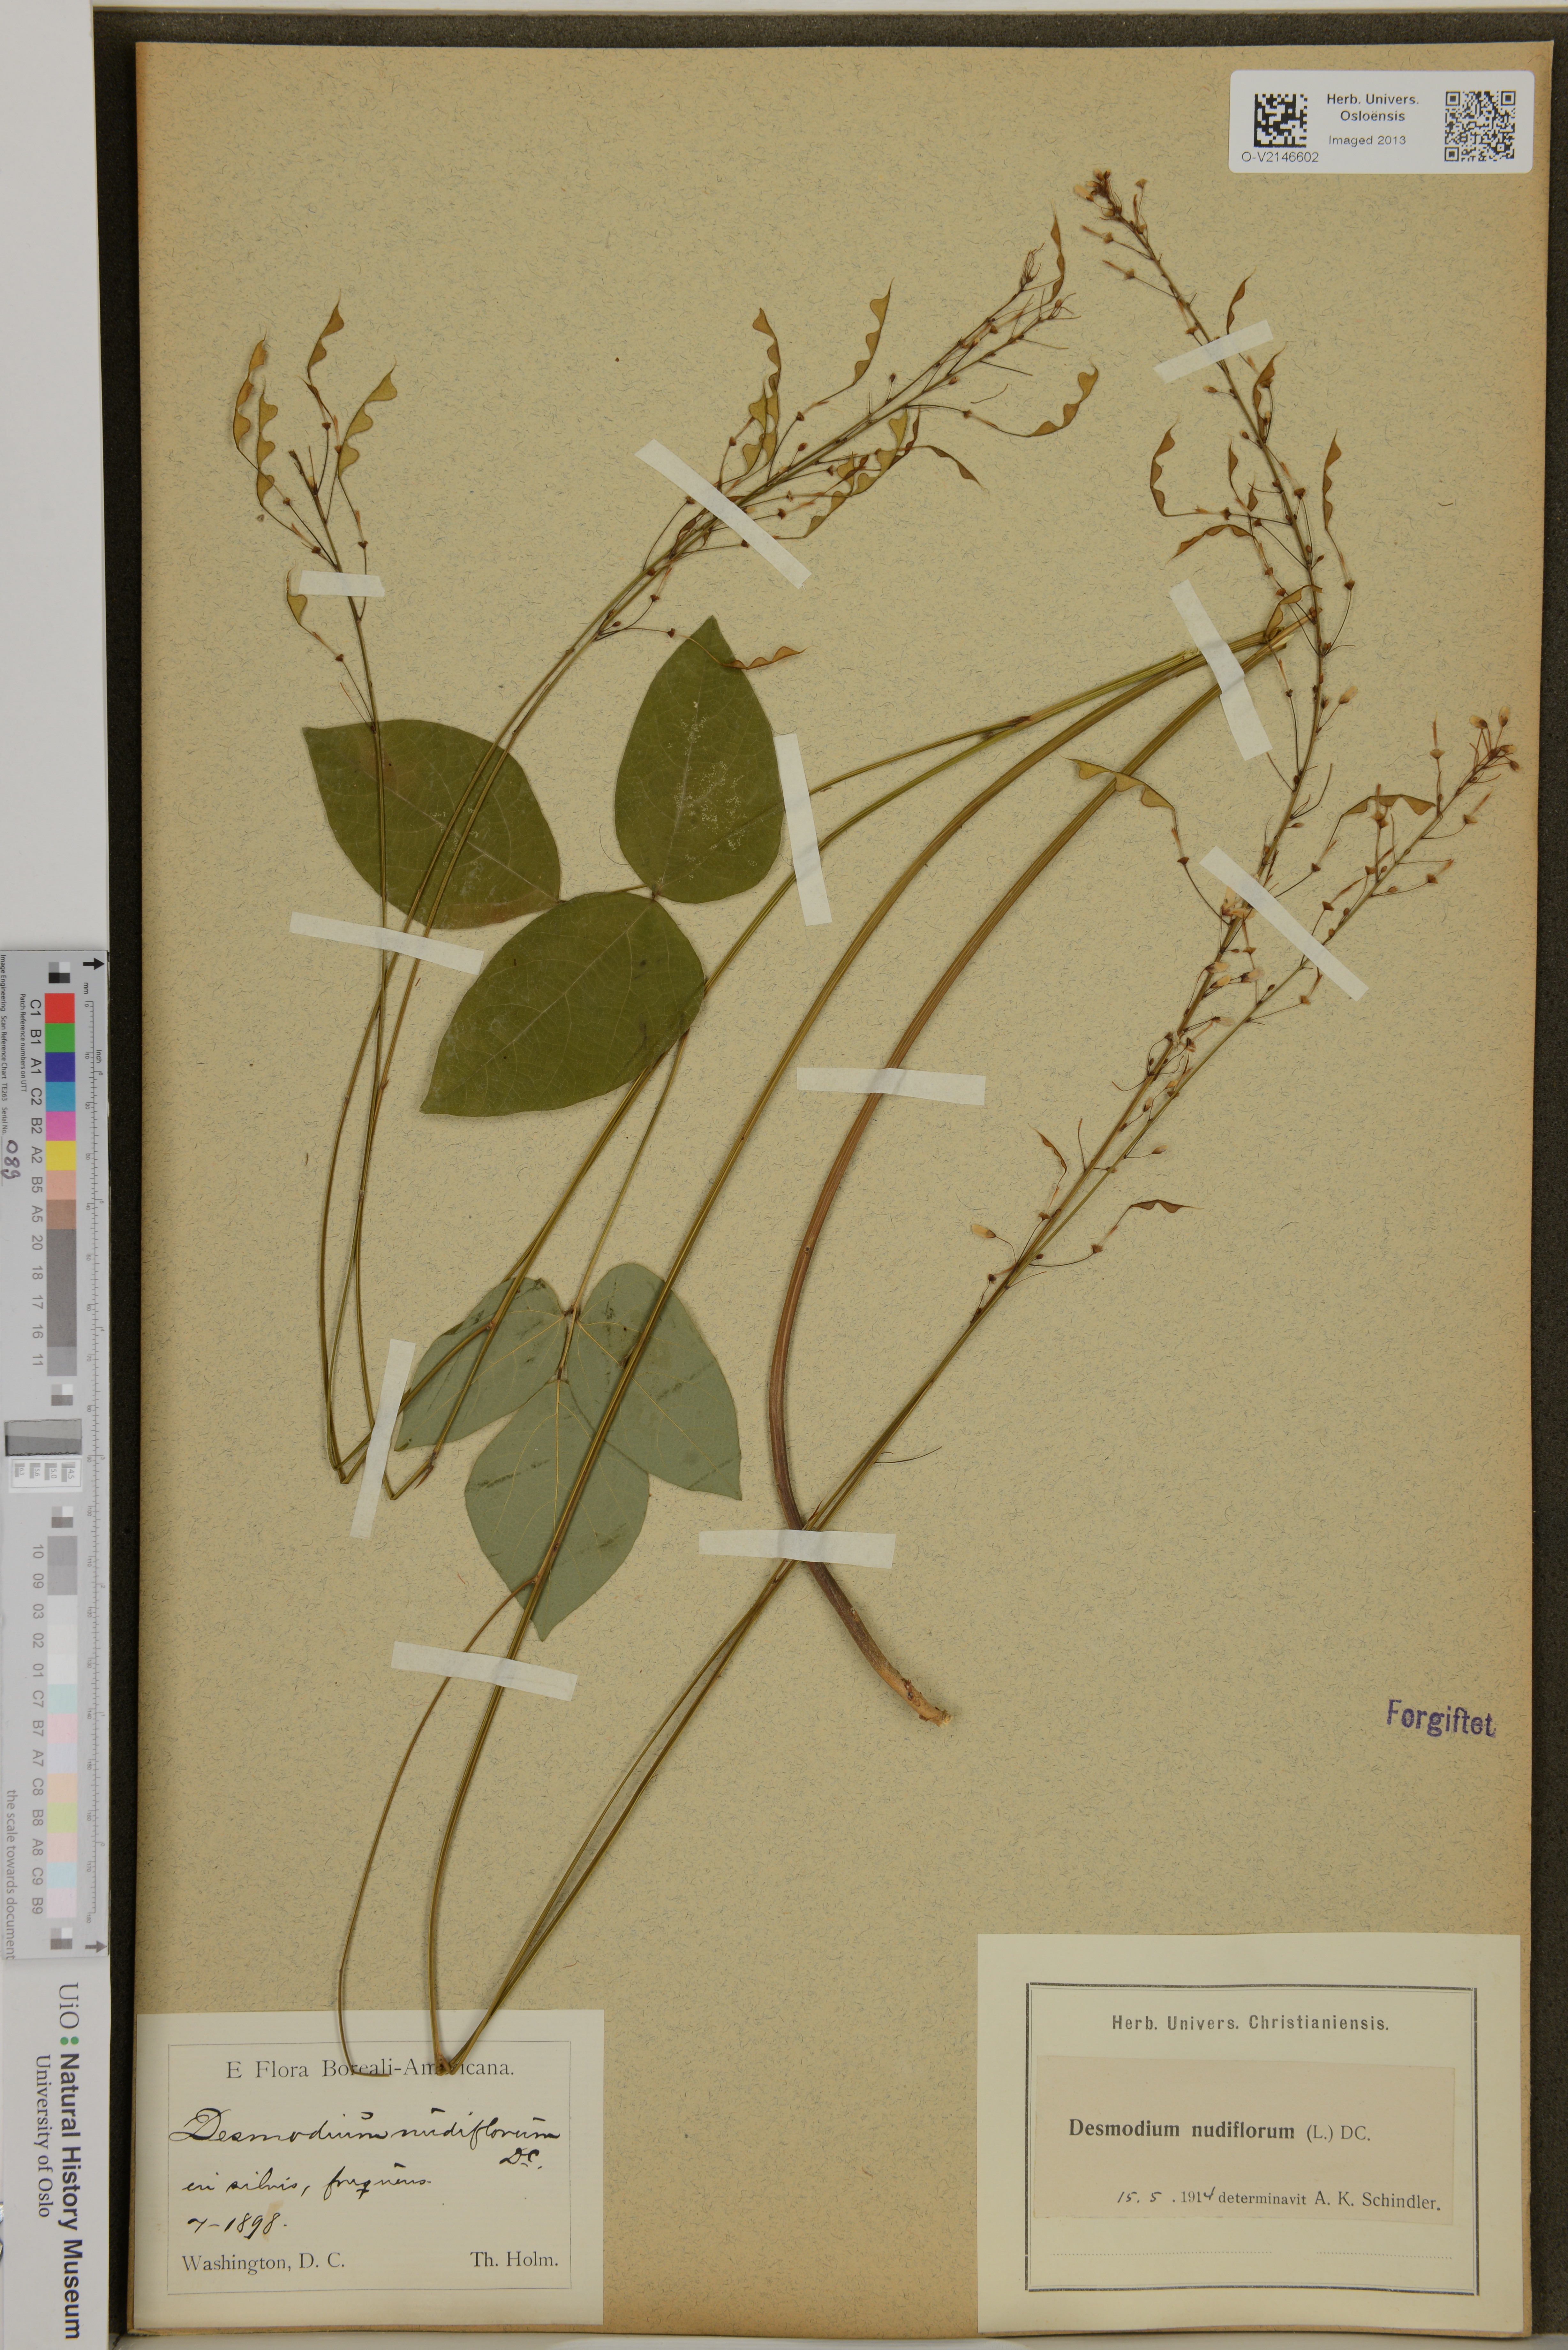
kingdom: Plantae
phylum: Tracheophyta
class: Magnoliopsida
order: Fabales
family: Fabaceae
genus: Hylodesmum
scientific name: Hylodesmum nudiflorum
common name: Bare-stemmed tick-trefoil
